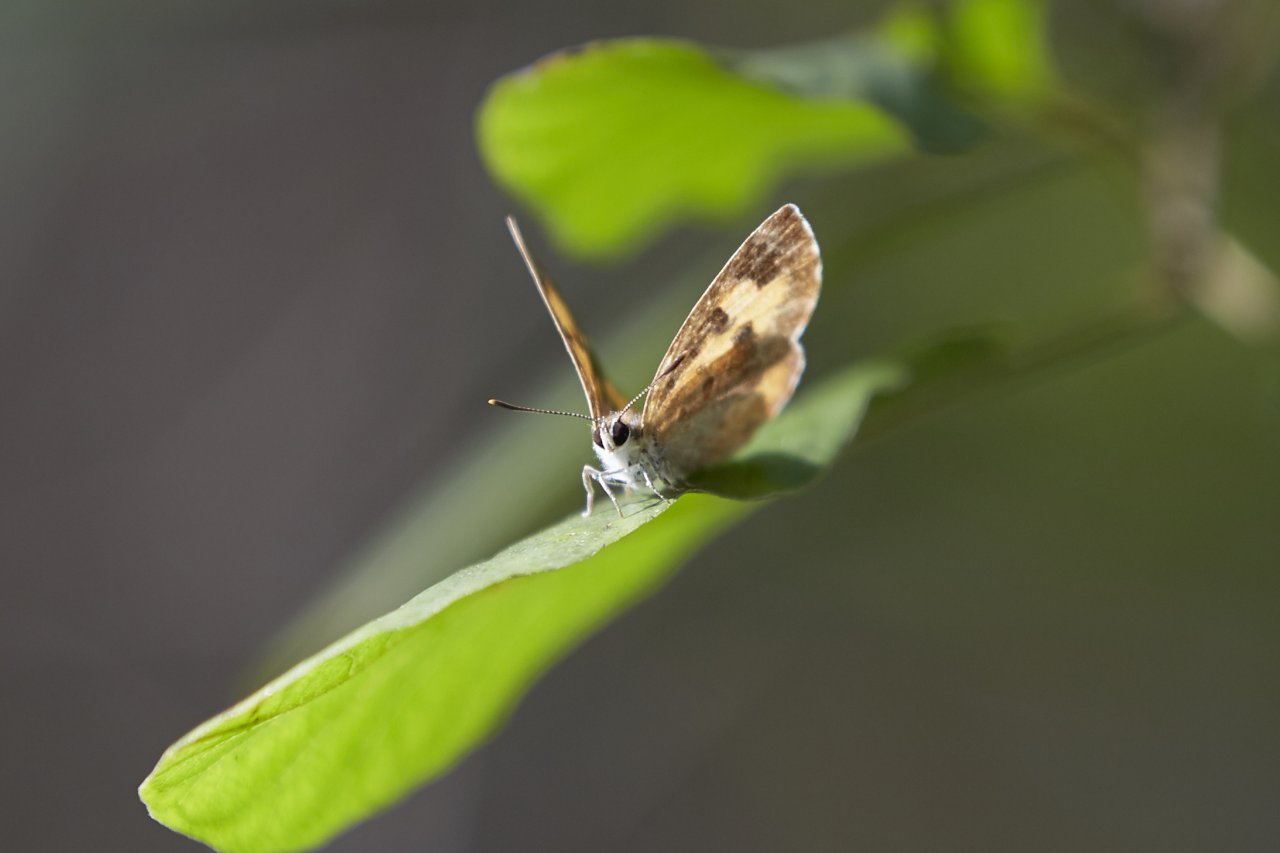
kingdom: Animalia
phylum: Arthropoda
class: Insecta
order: Lepidoptera
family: Lycaenidae
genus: Feniseca
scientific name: Feniseca tarquinius
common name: Harvester
